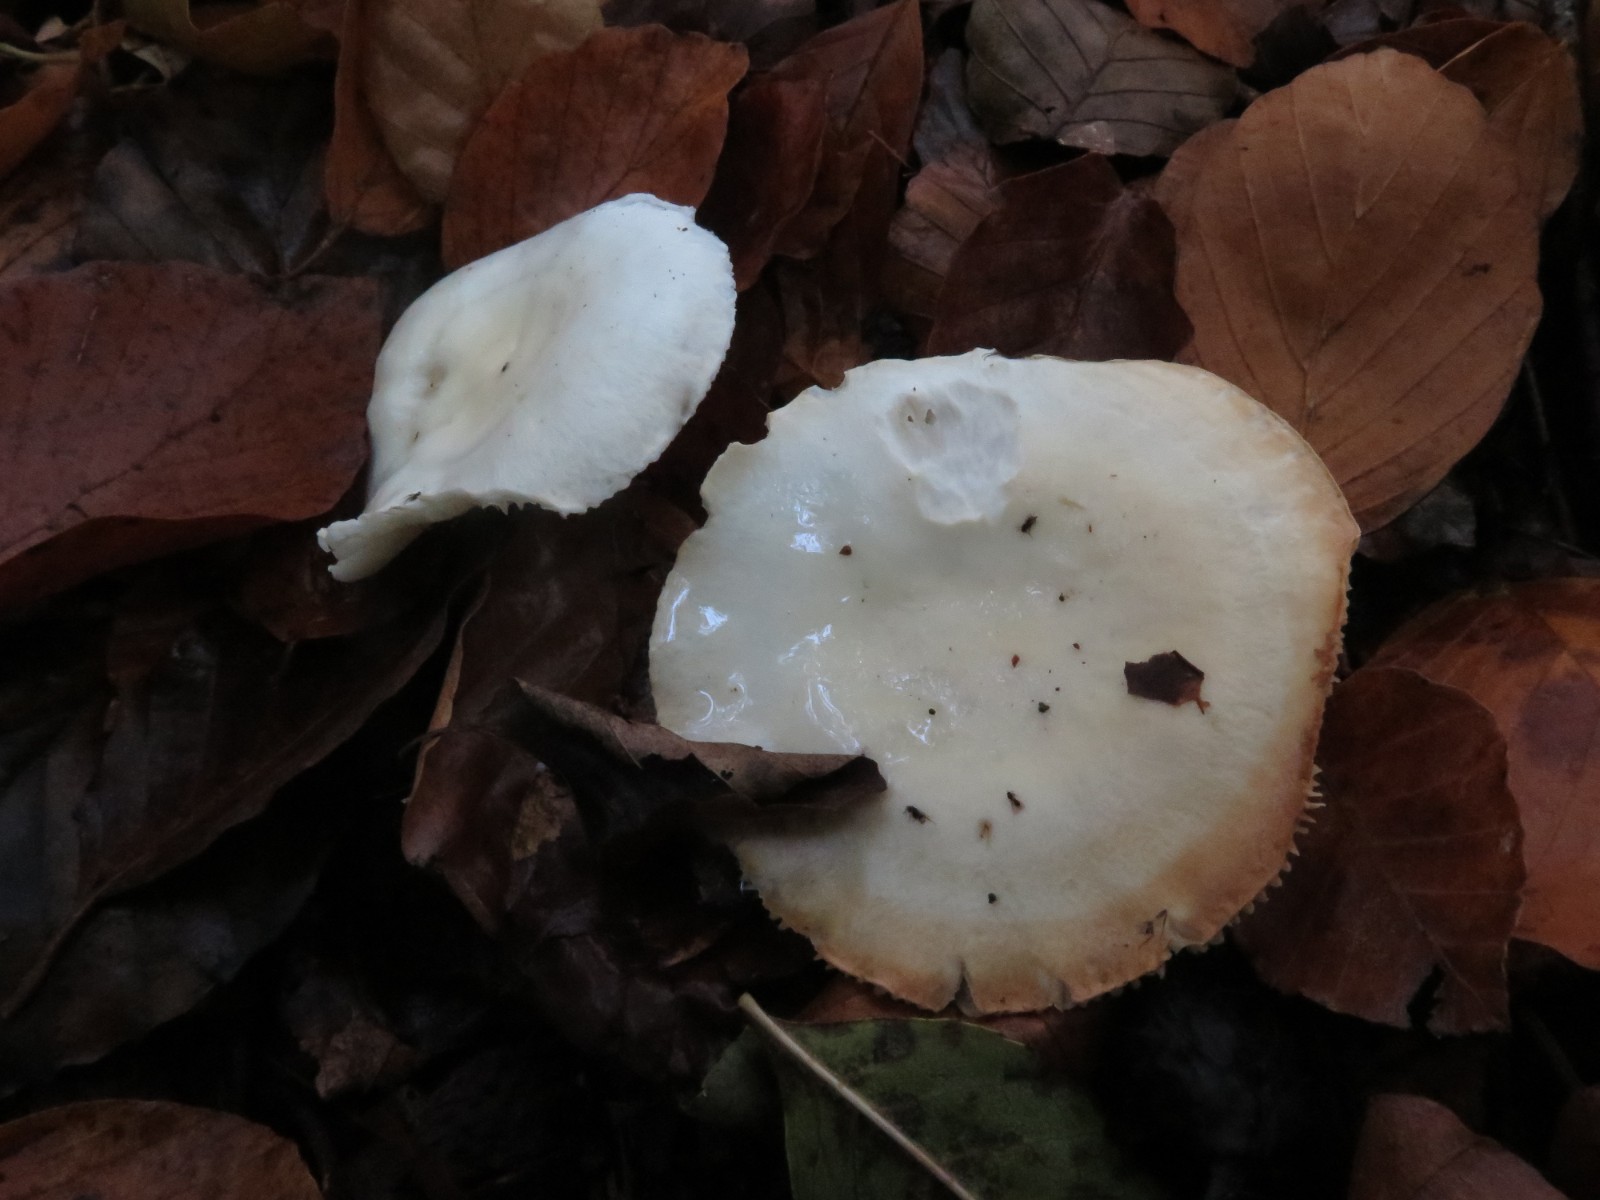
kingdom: Fungi
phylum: Basidiomycota
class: Agaricomycetes
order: Agaricales
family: Hygrophoraceae
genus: Hygrophorus
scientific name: Hygrophorus discoxanthus
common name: ildelugtende sneglehat
